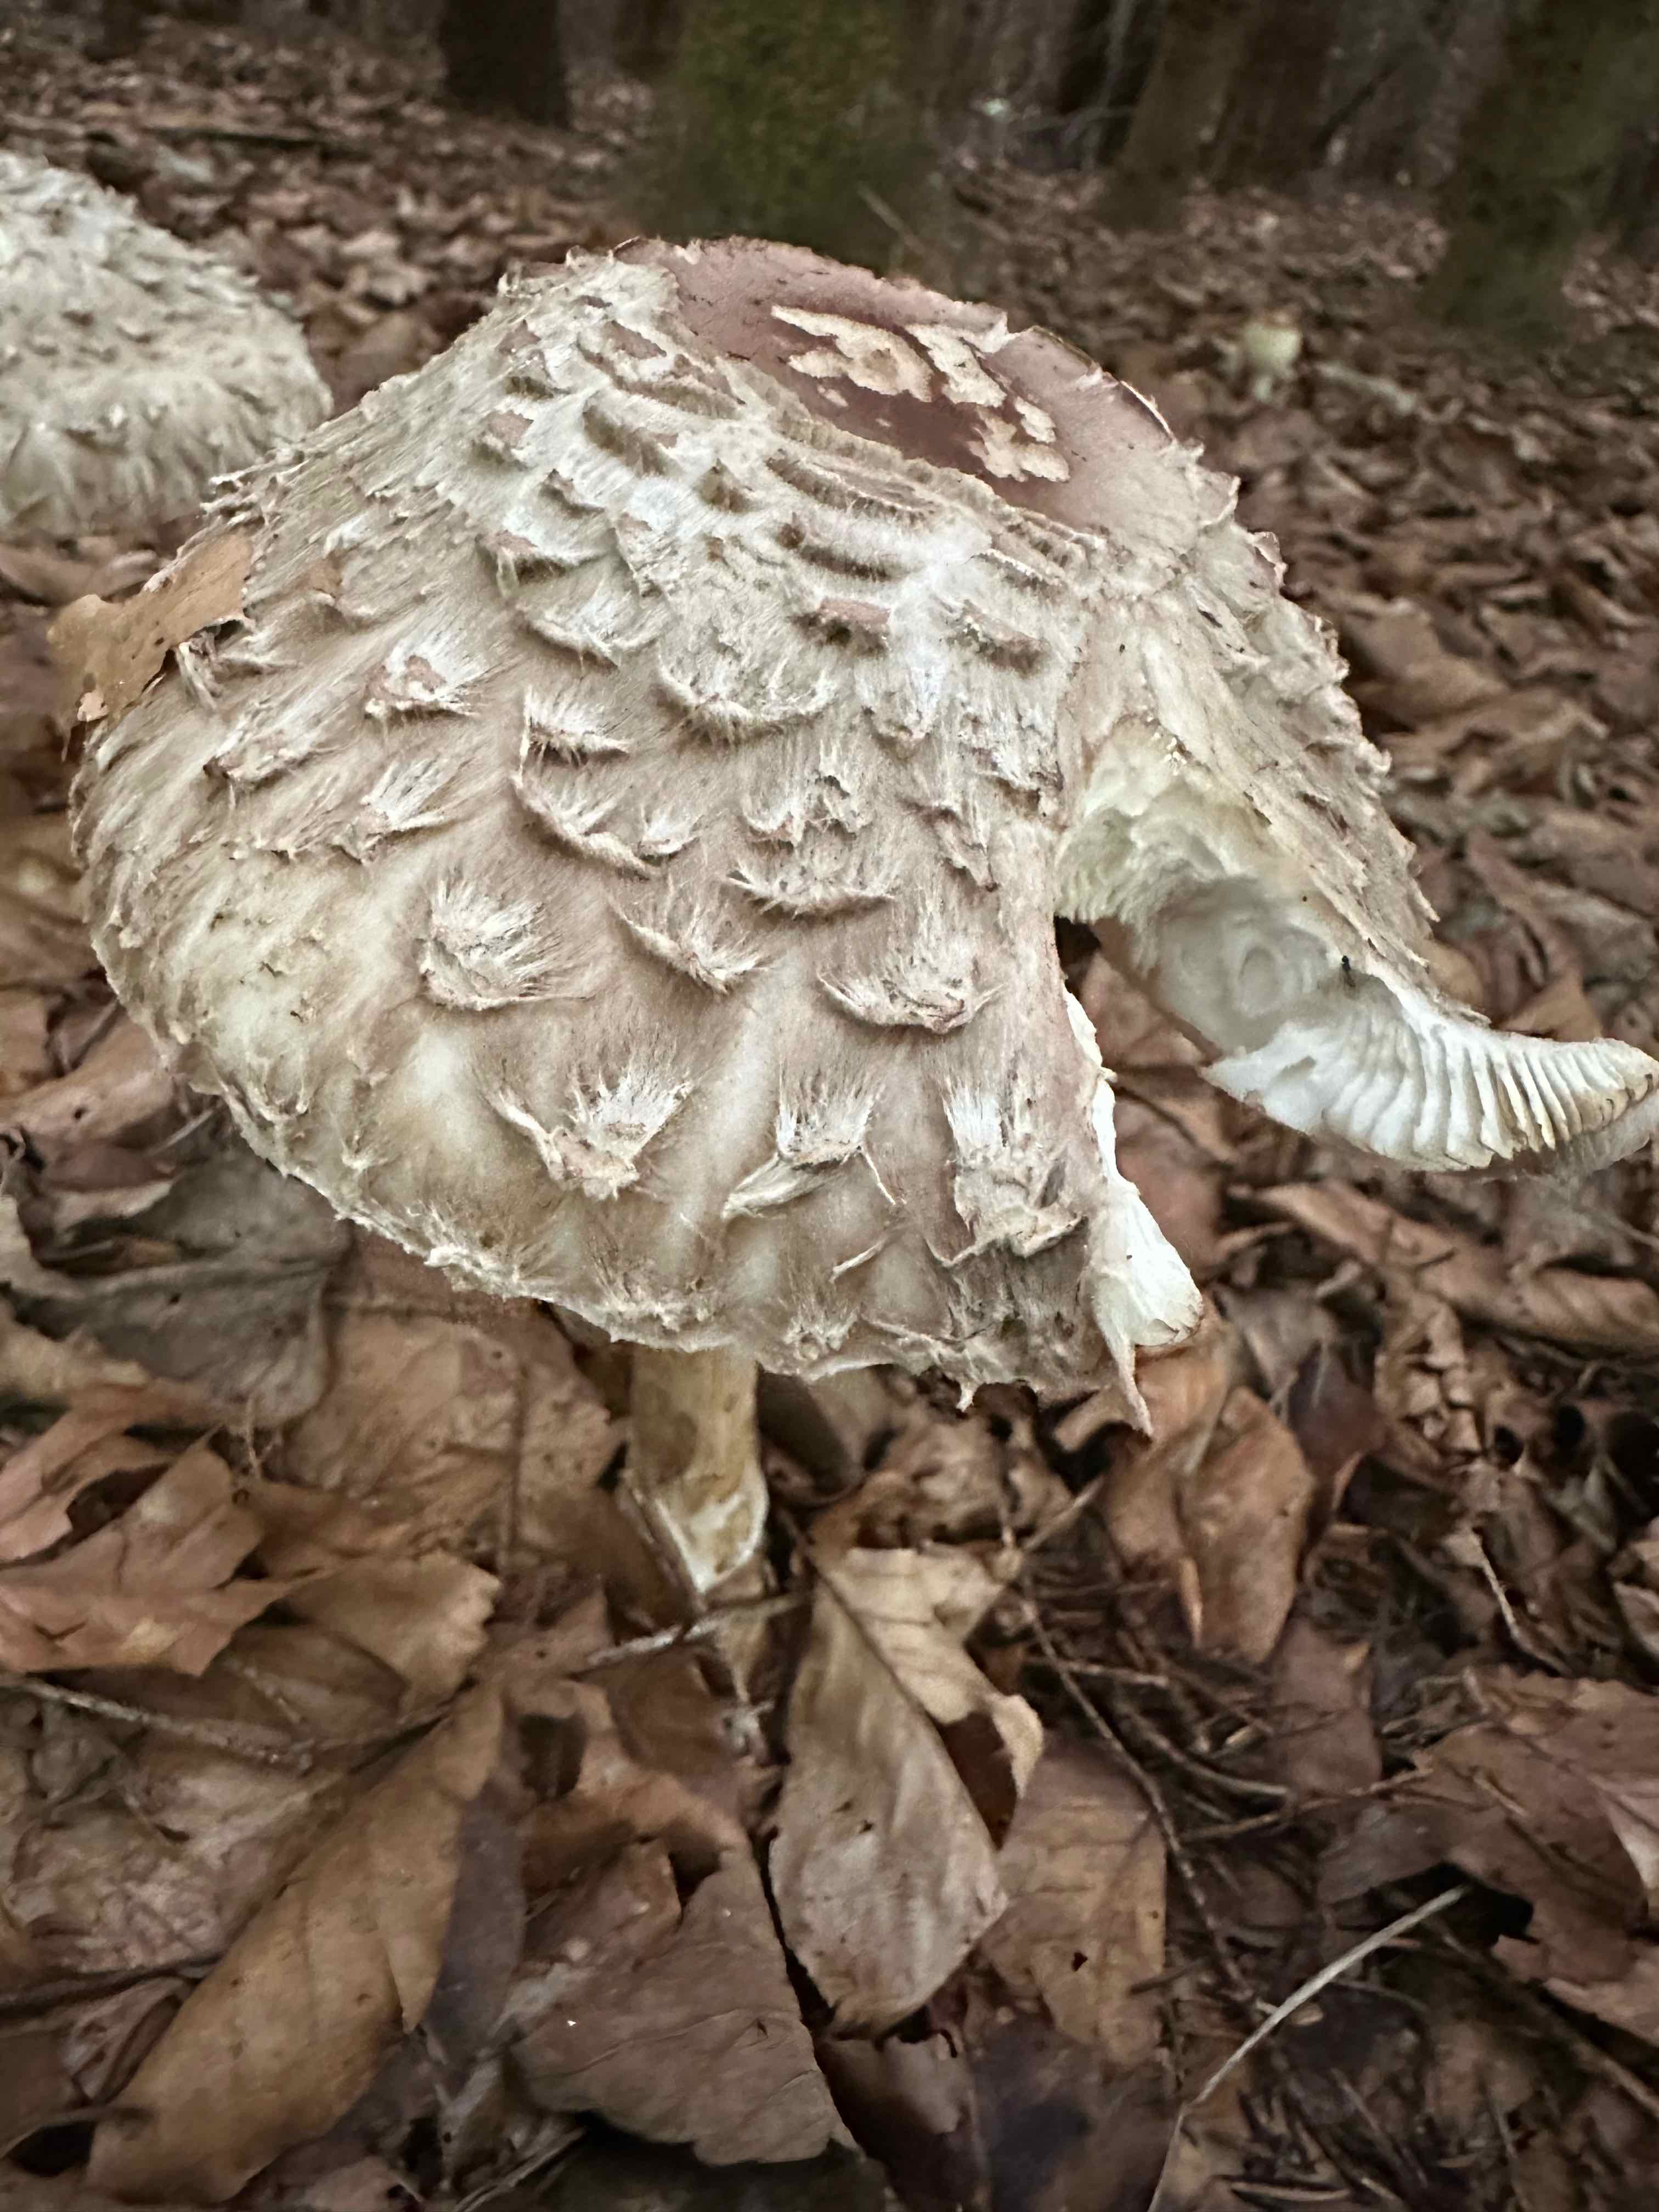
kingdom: Fungi
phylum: Basidiomycota
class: Agaricomycetes
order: Agaricales
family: Agaricaceae
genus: Chlorophyllum
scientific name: Chlorophyllum olivieri
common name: almindelig rabarberhat
